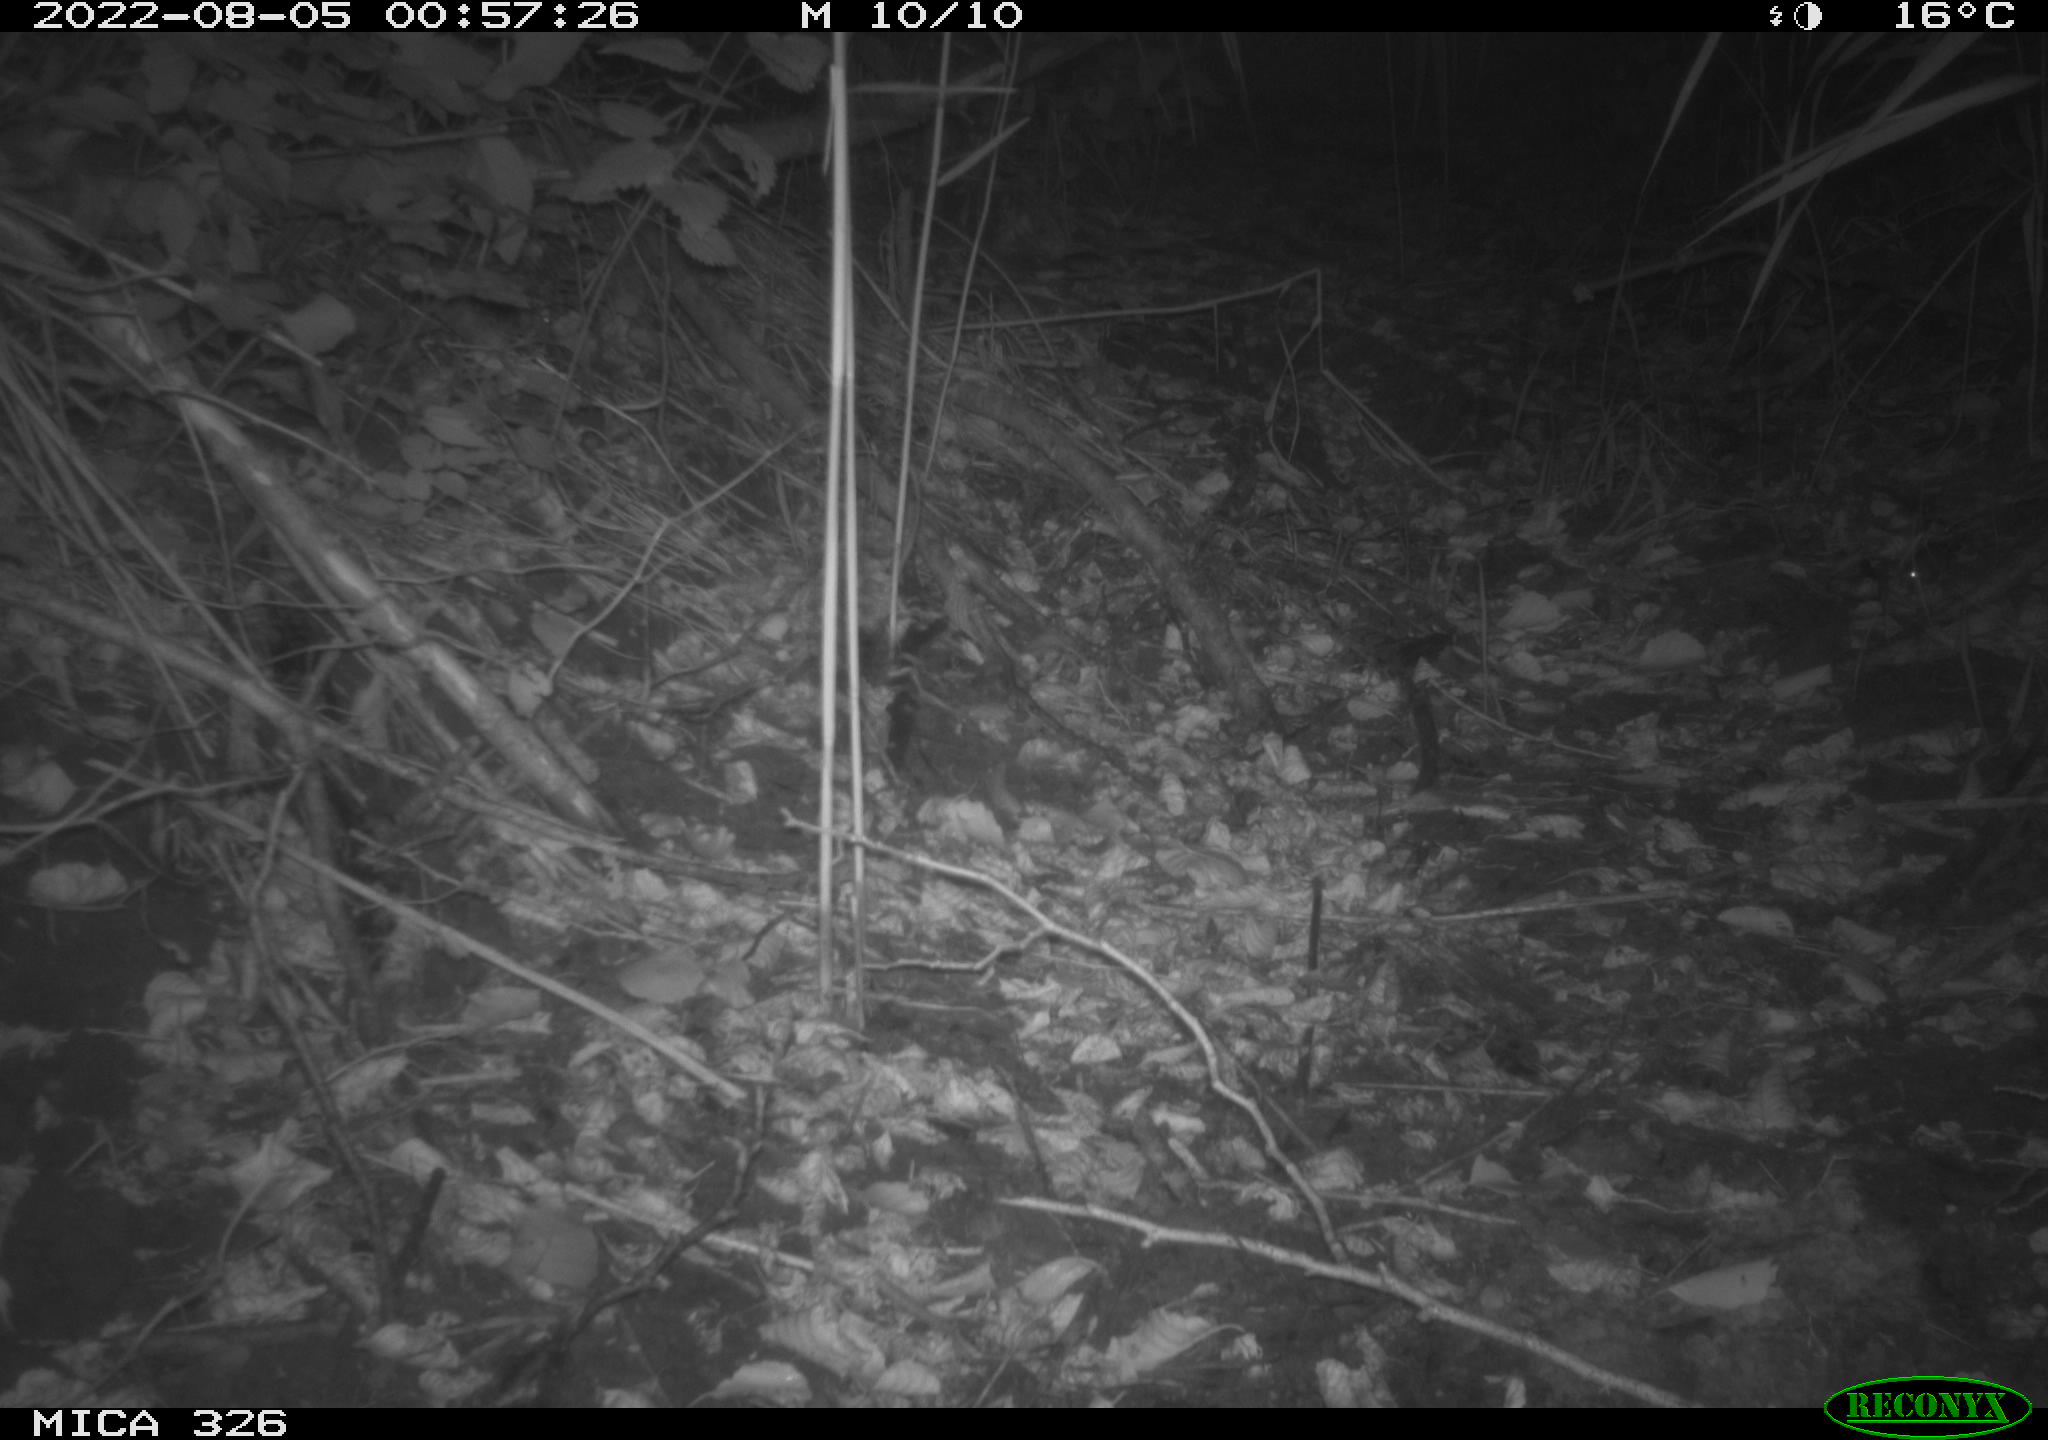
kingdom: Animalia
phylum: Chordata
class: Mammalia
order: Rodentia
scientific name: Rodentia
